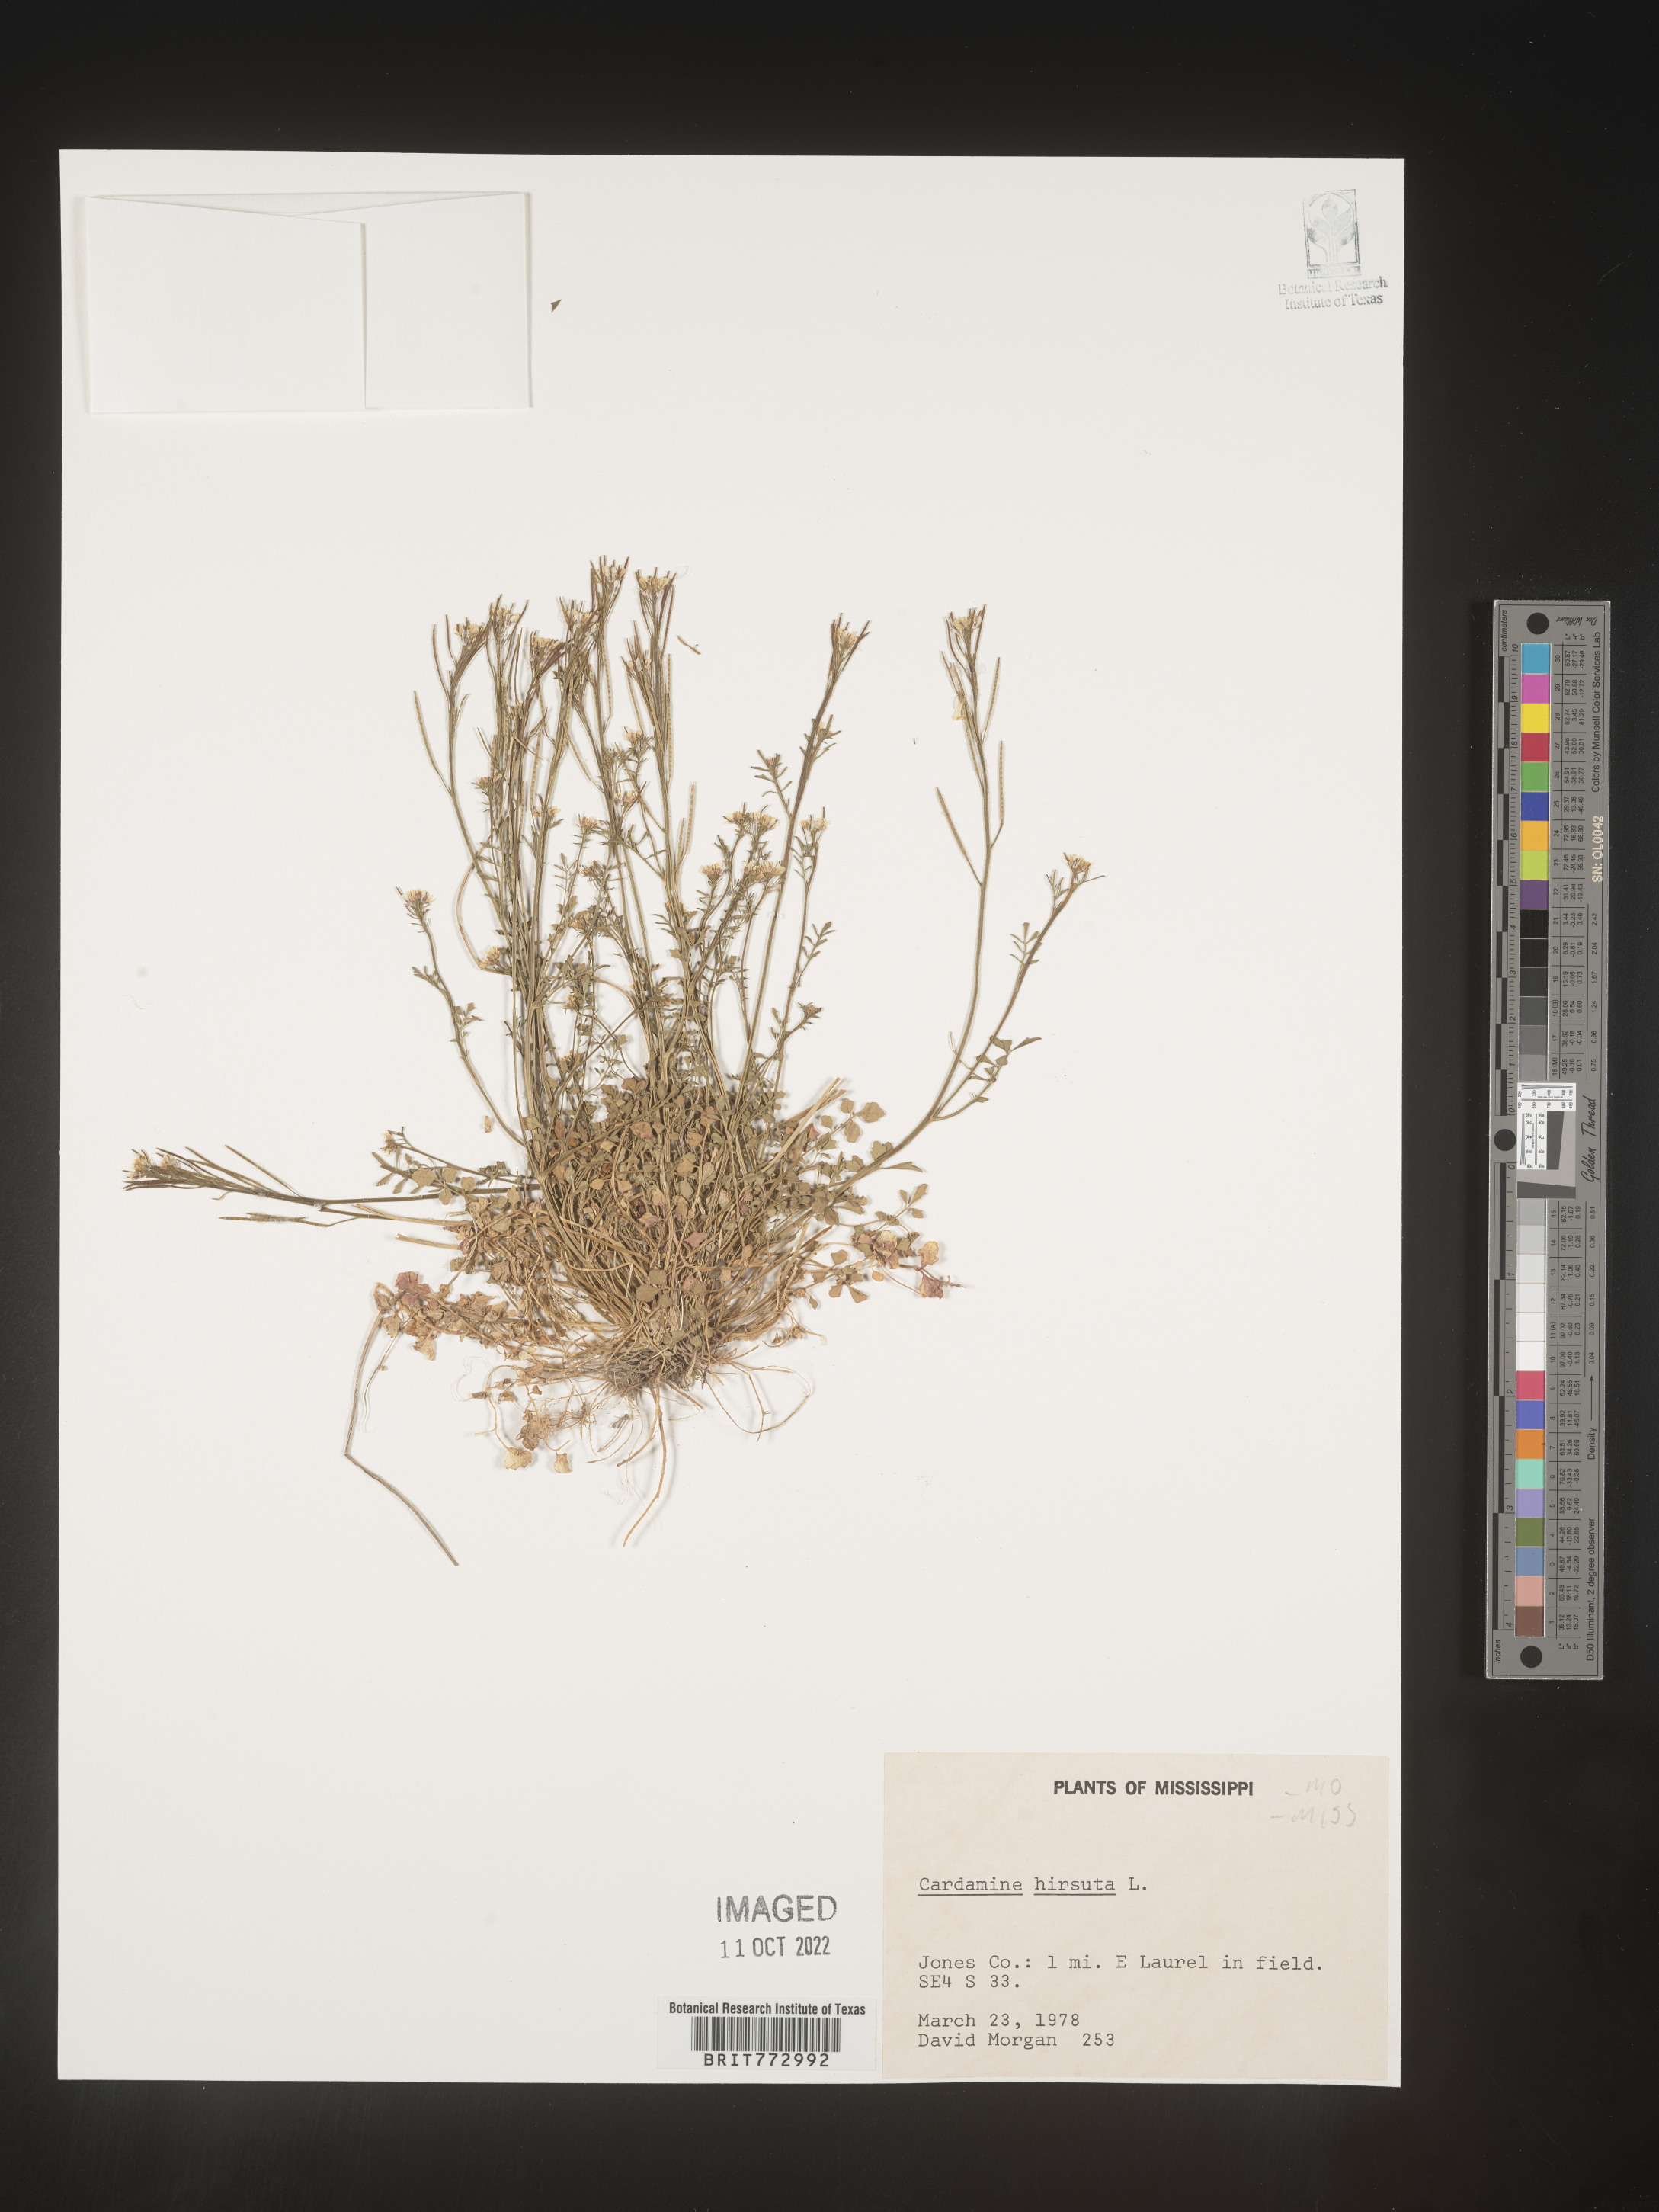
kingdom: Plantae
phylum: Tracheophyta
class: Magnoliopsida
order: Brassicales
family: Brassicaceae
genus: Cardamine
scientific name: Cardamine hirsuta
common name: Hairy bittercress
